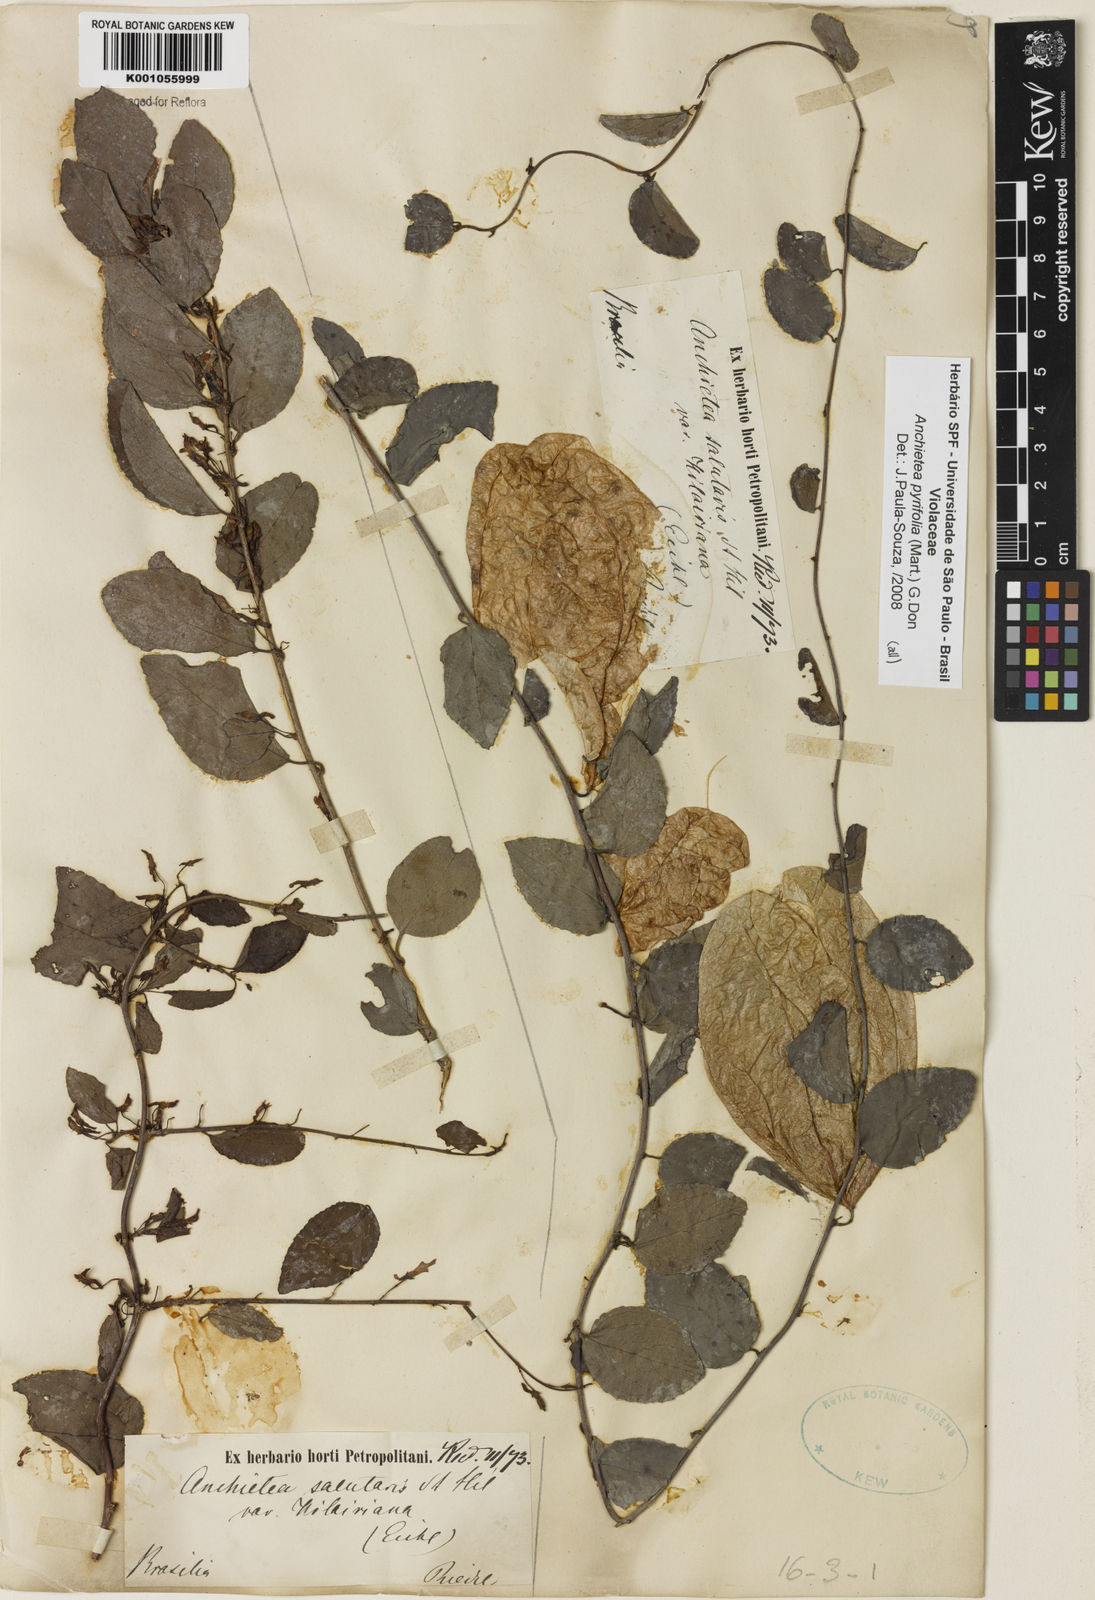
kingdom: Plantae
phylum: Tracheophyta
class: Magnoliopsida
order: Malpighiales
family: Violaceae
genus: Anchietea
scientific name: Anchietea pyrifolia
